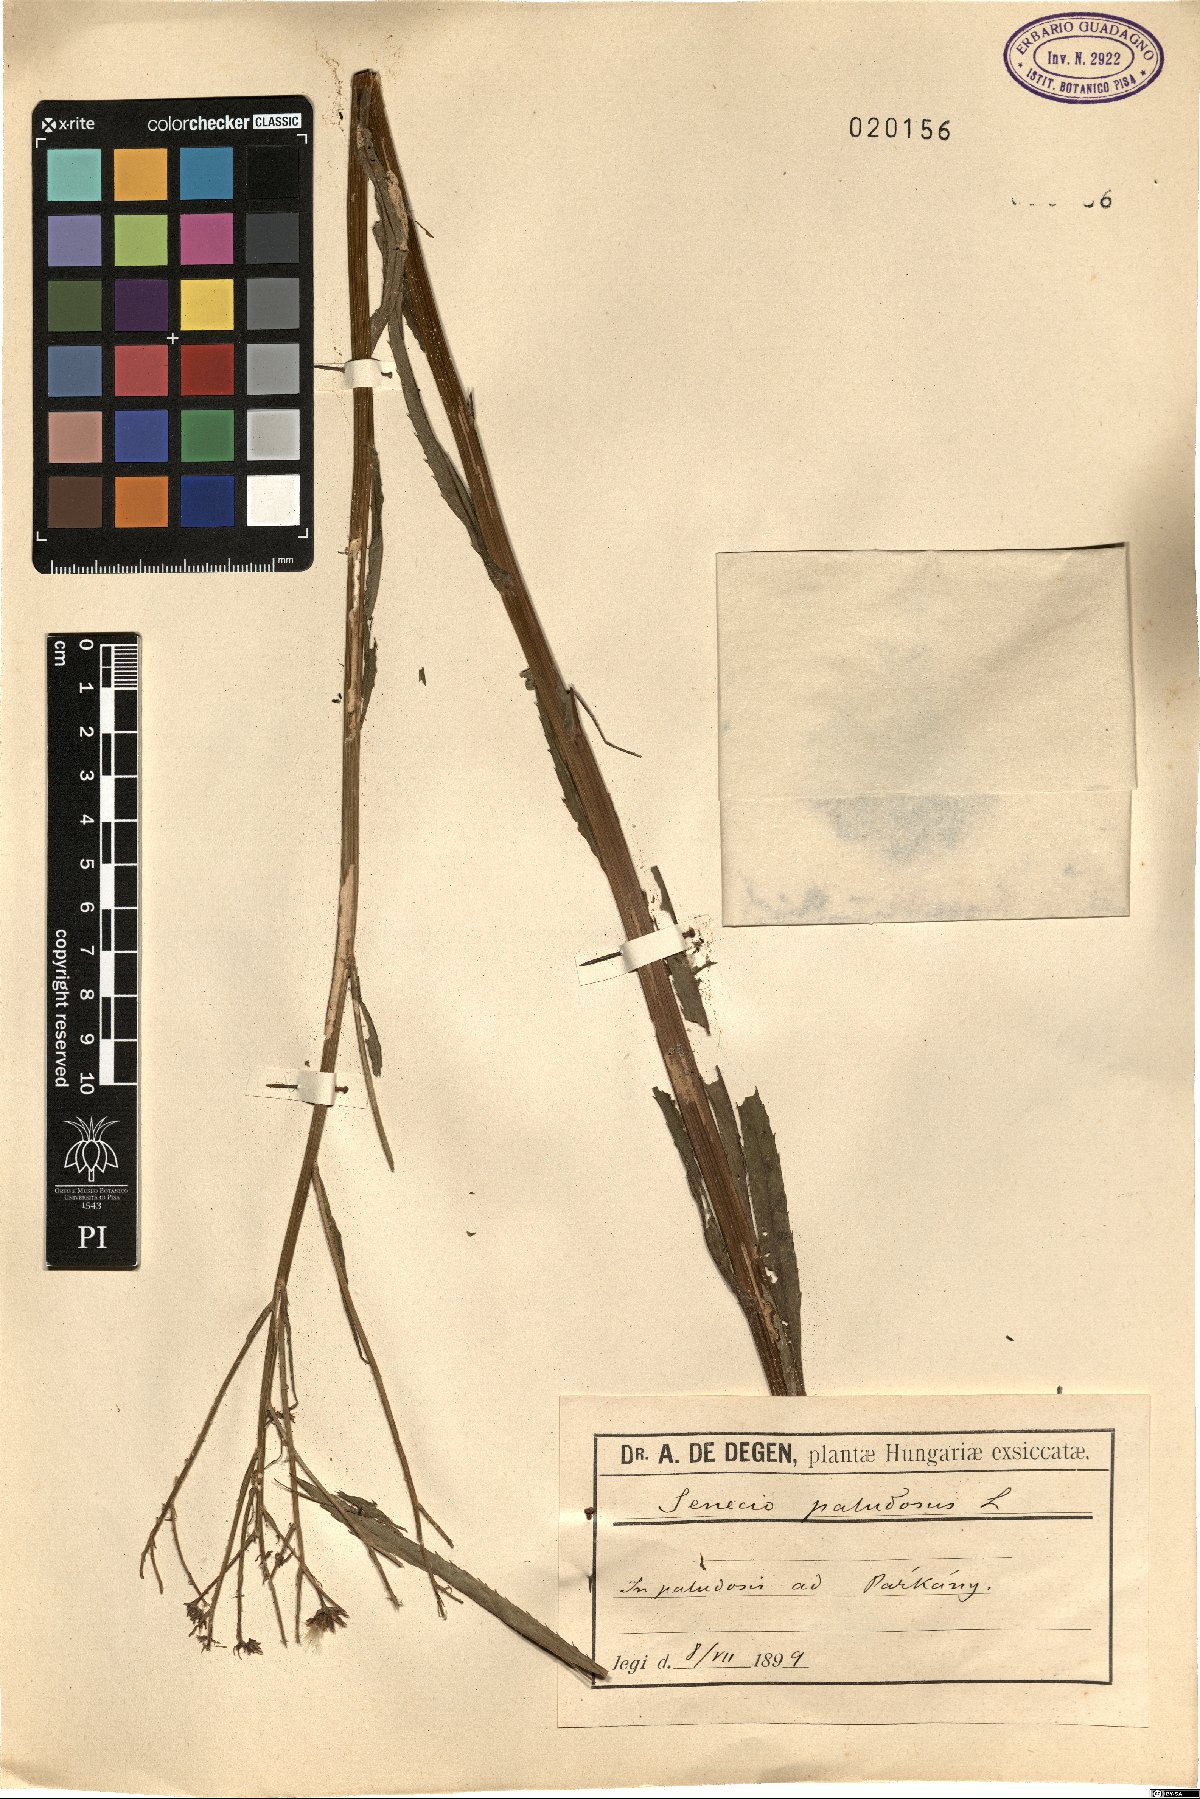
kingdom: Plantae
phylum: Tracheophyta
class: Magnoliopsida
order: Asterales
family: Asteraceae
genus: Jacobaea
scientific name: Jacobaea paludosa
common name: Fen ragwort
